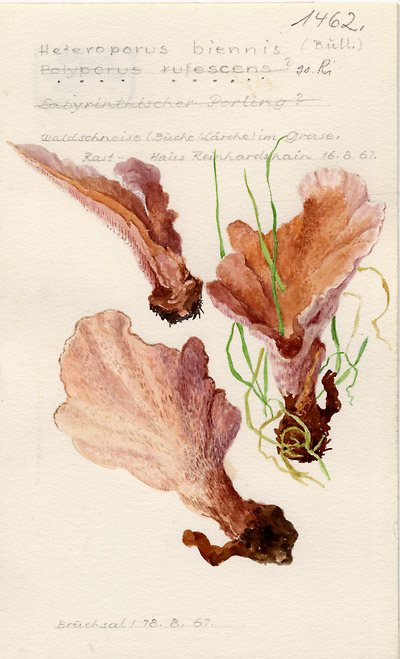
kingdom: Fungi
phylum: Basidiomycota
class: Agaricomycetes
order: Polyporales
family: Podoscyphaceae
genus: Abortiporus
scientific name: Abortiporus biennis
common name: Blushing rosette
